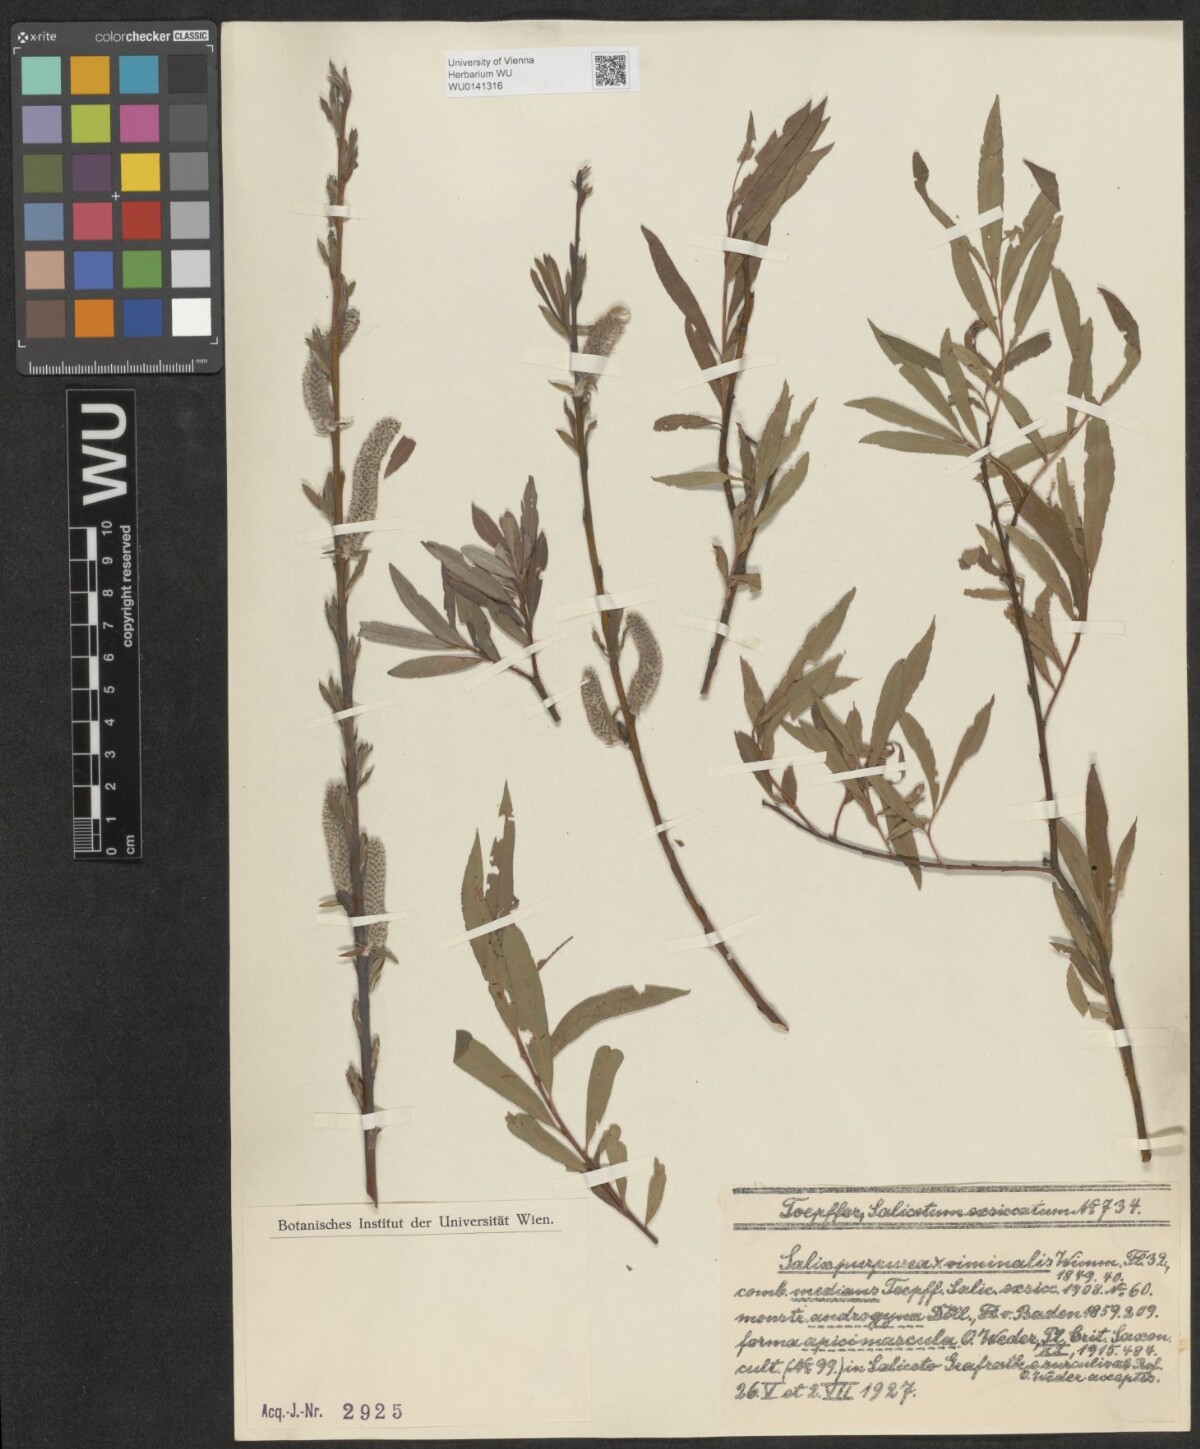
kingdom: Plantae
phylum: Tracheophyta
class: Magnoliopsida
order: Malpighiales
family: Salicaceae
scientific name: Salicaceae
